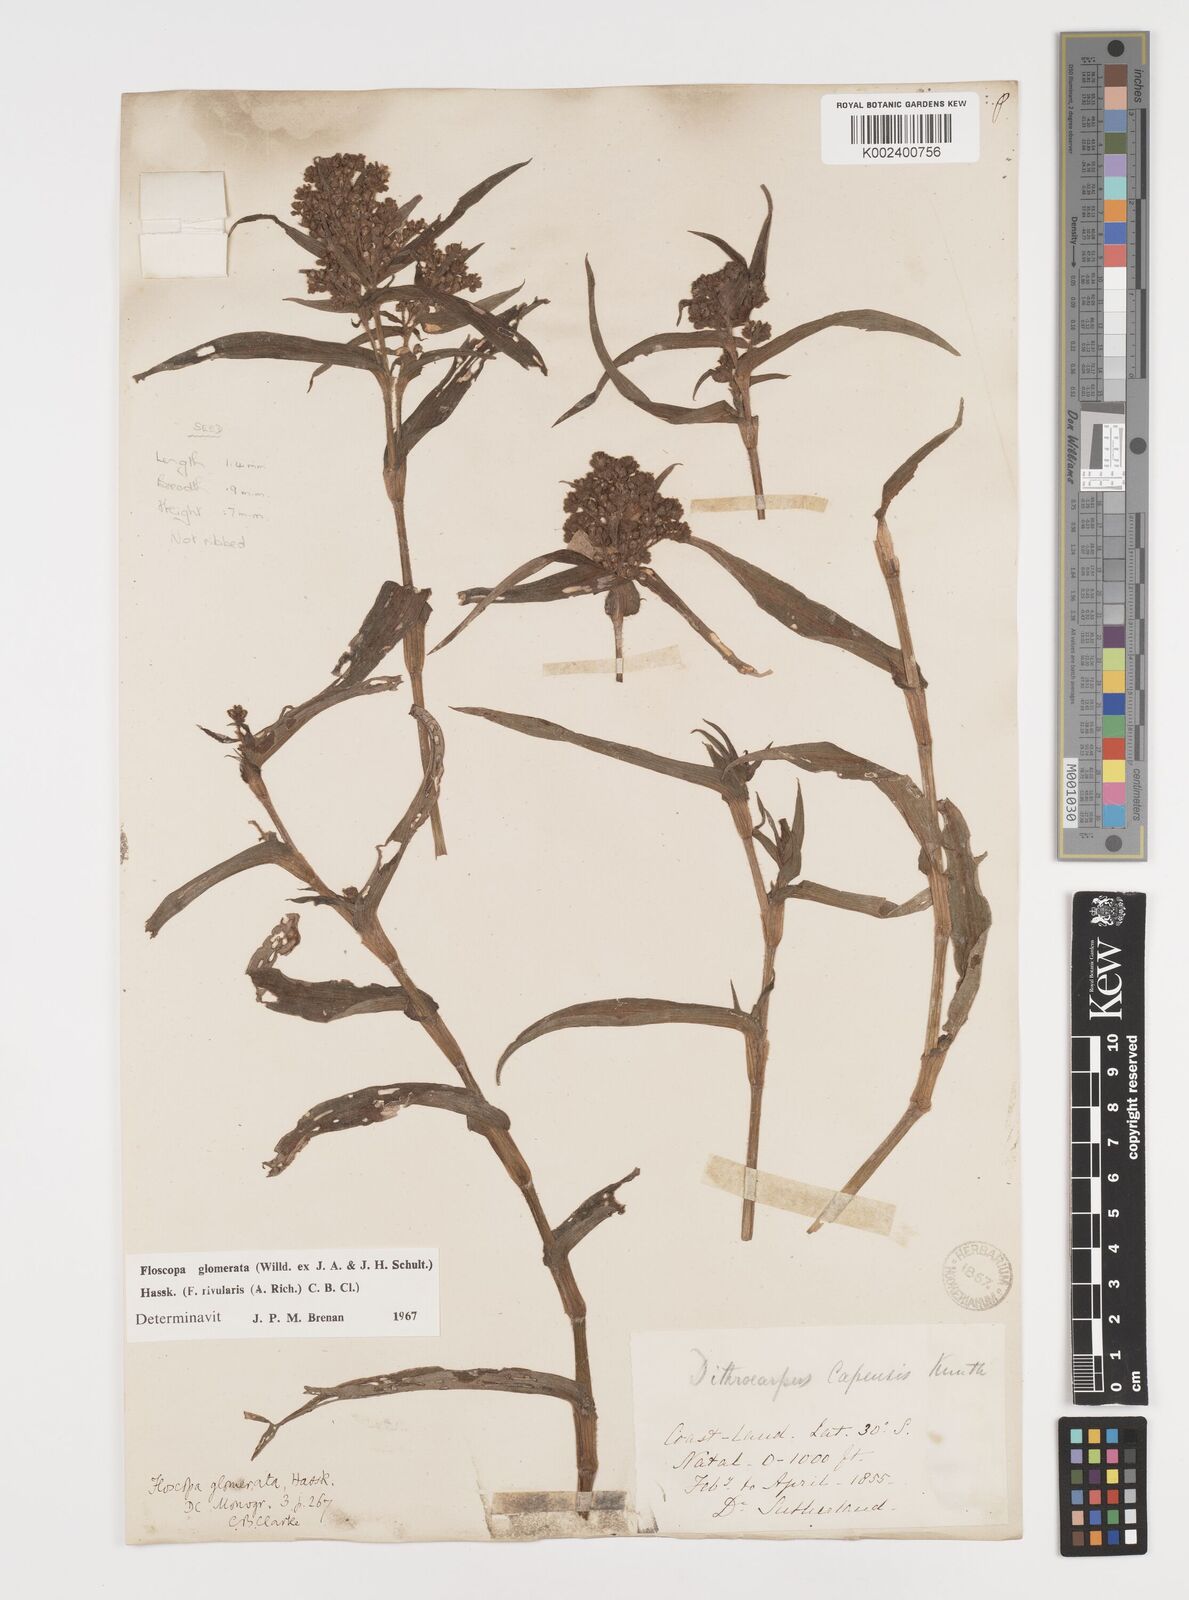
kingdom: Plantae
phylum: Tracheophyta
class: Liliopsida
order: Commelinales
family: Commelinaceae
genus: Floscopa
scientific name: Floscopa glomerata
